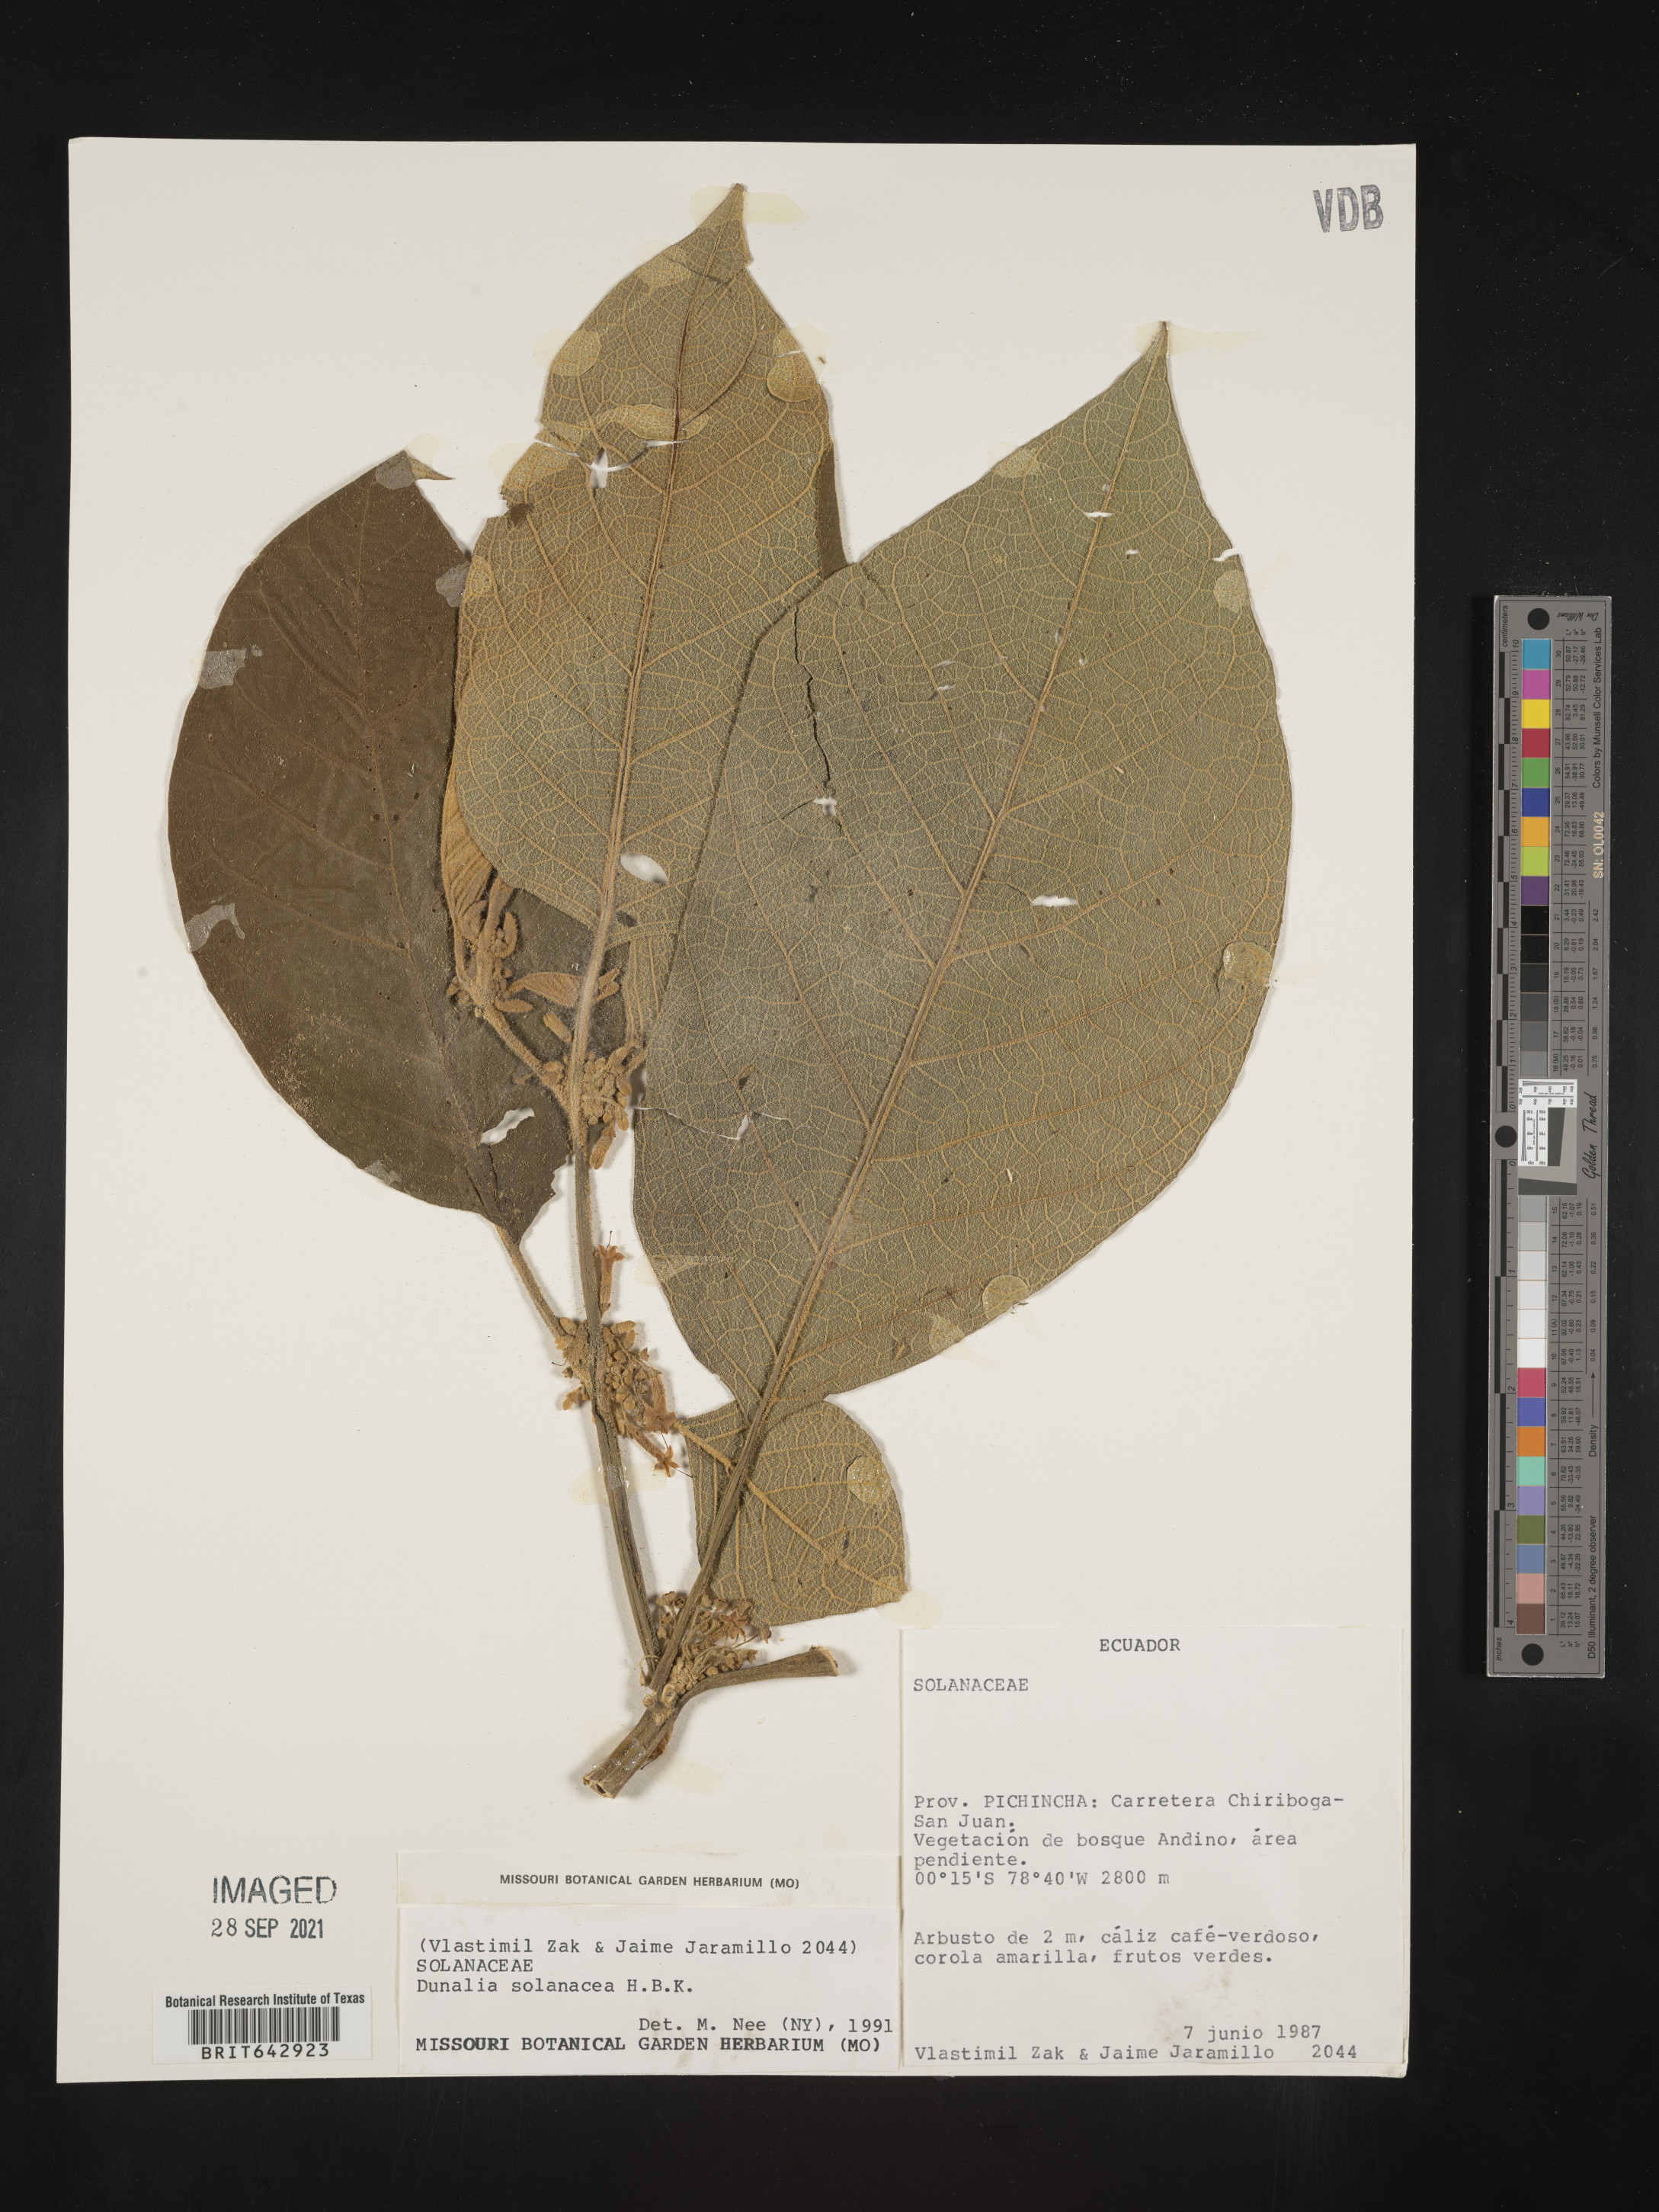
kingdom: Plantae
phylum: Tracheophyta
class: Magnoliopsida
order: Solanales
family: Solanaceae
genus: Dunalia
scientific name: Dunalia
